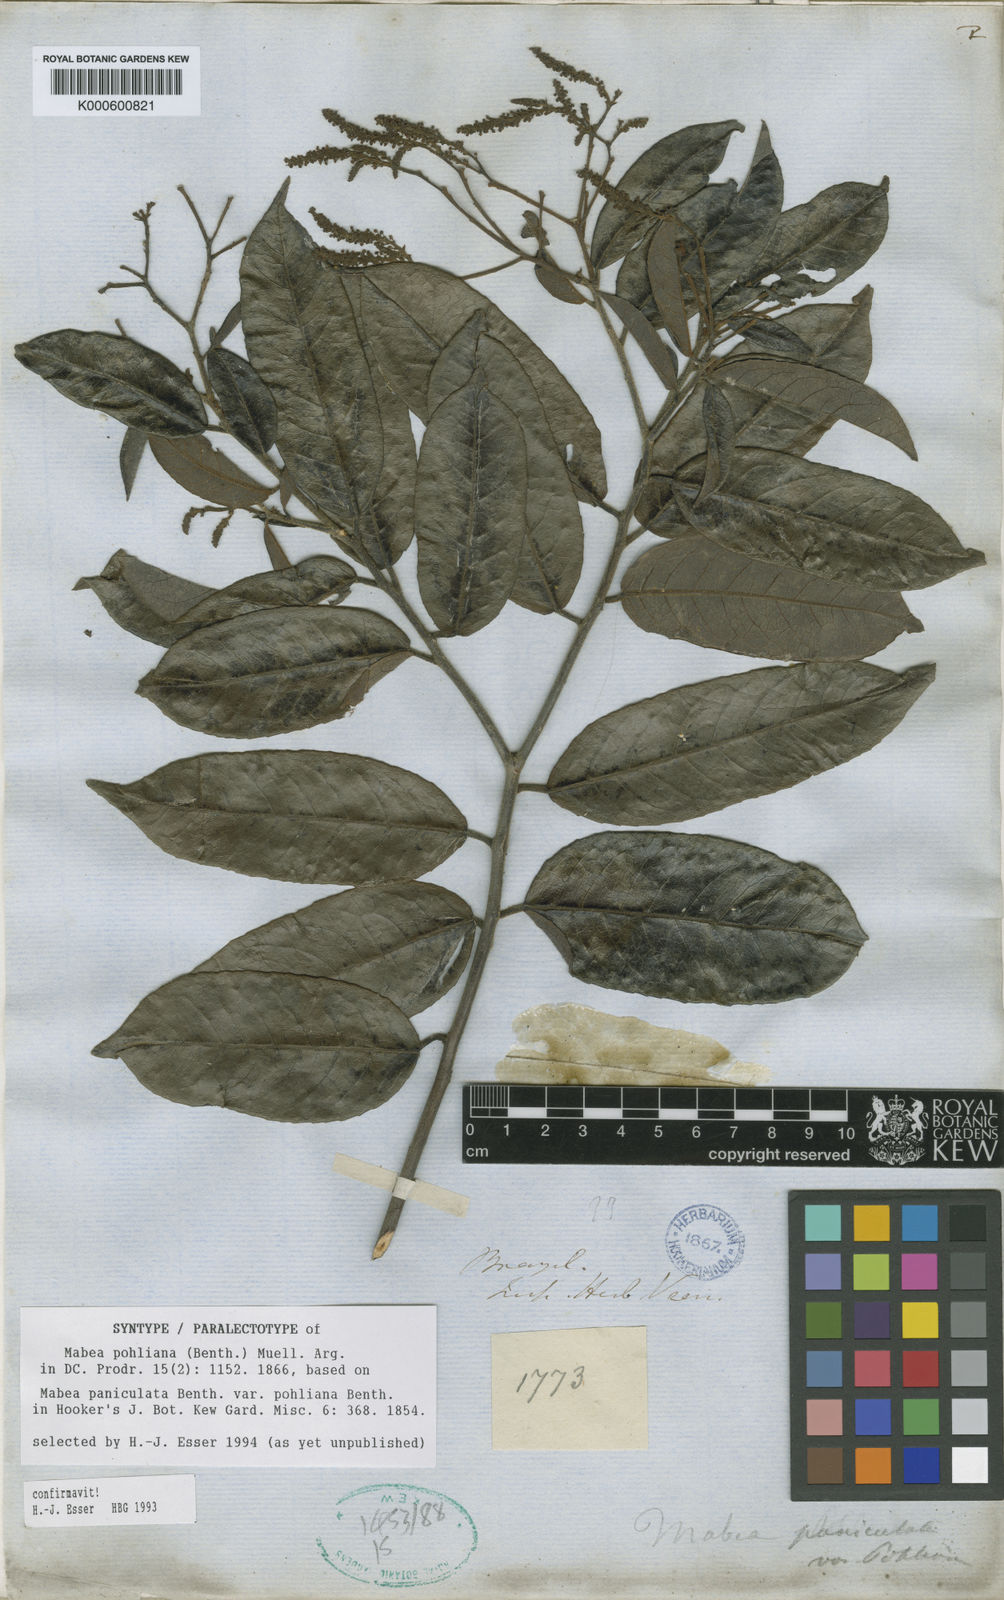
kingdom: Plantae
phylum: Tracheophyta
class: Magnoliopsida
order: Malpighiales
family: Euphorbiaceae
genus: Mabea
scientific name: Mabea
